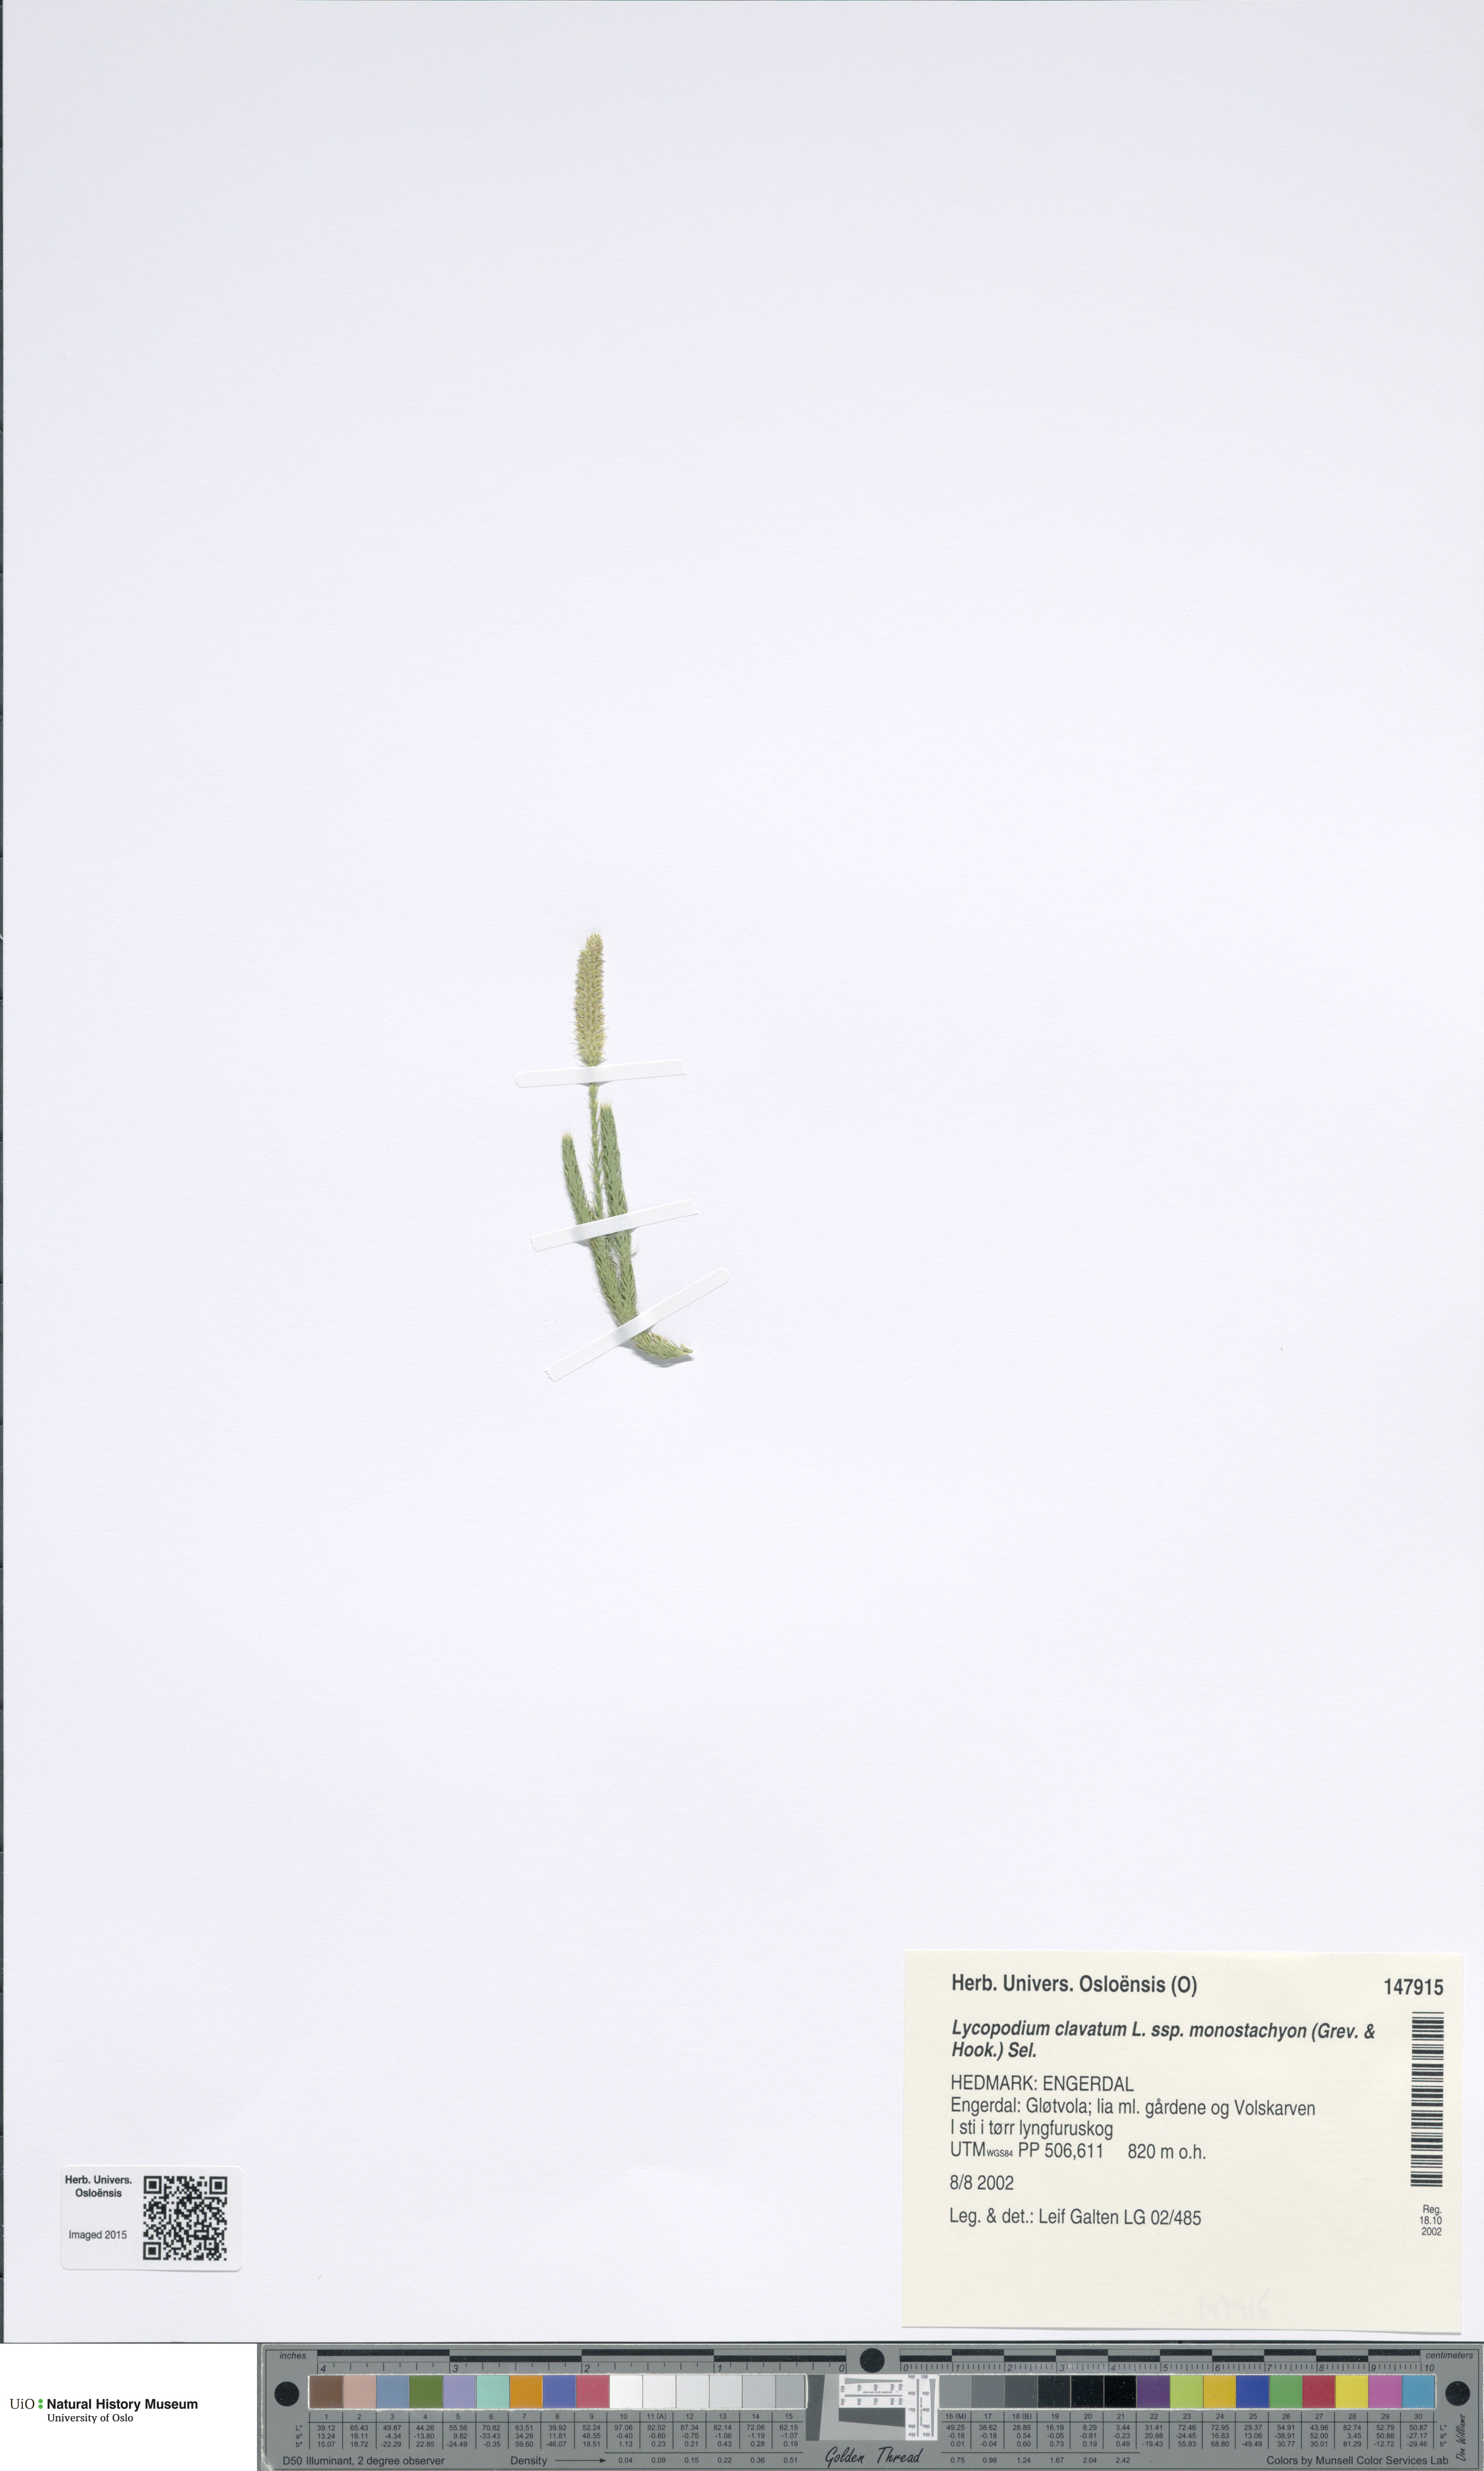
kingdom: Plantae
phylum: Tracheophyta
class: Lycopodiopsida
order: Lycopodiales
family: Lycopodiaceae
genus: Lycopodium
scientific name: Lycopodium lagopus
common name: One-cone clubmoss
